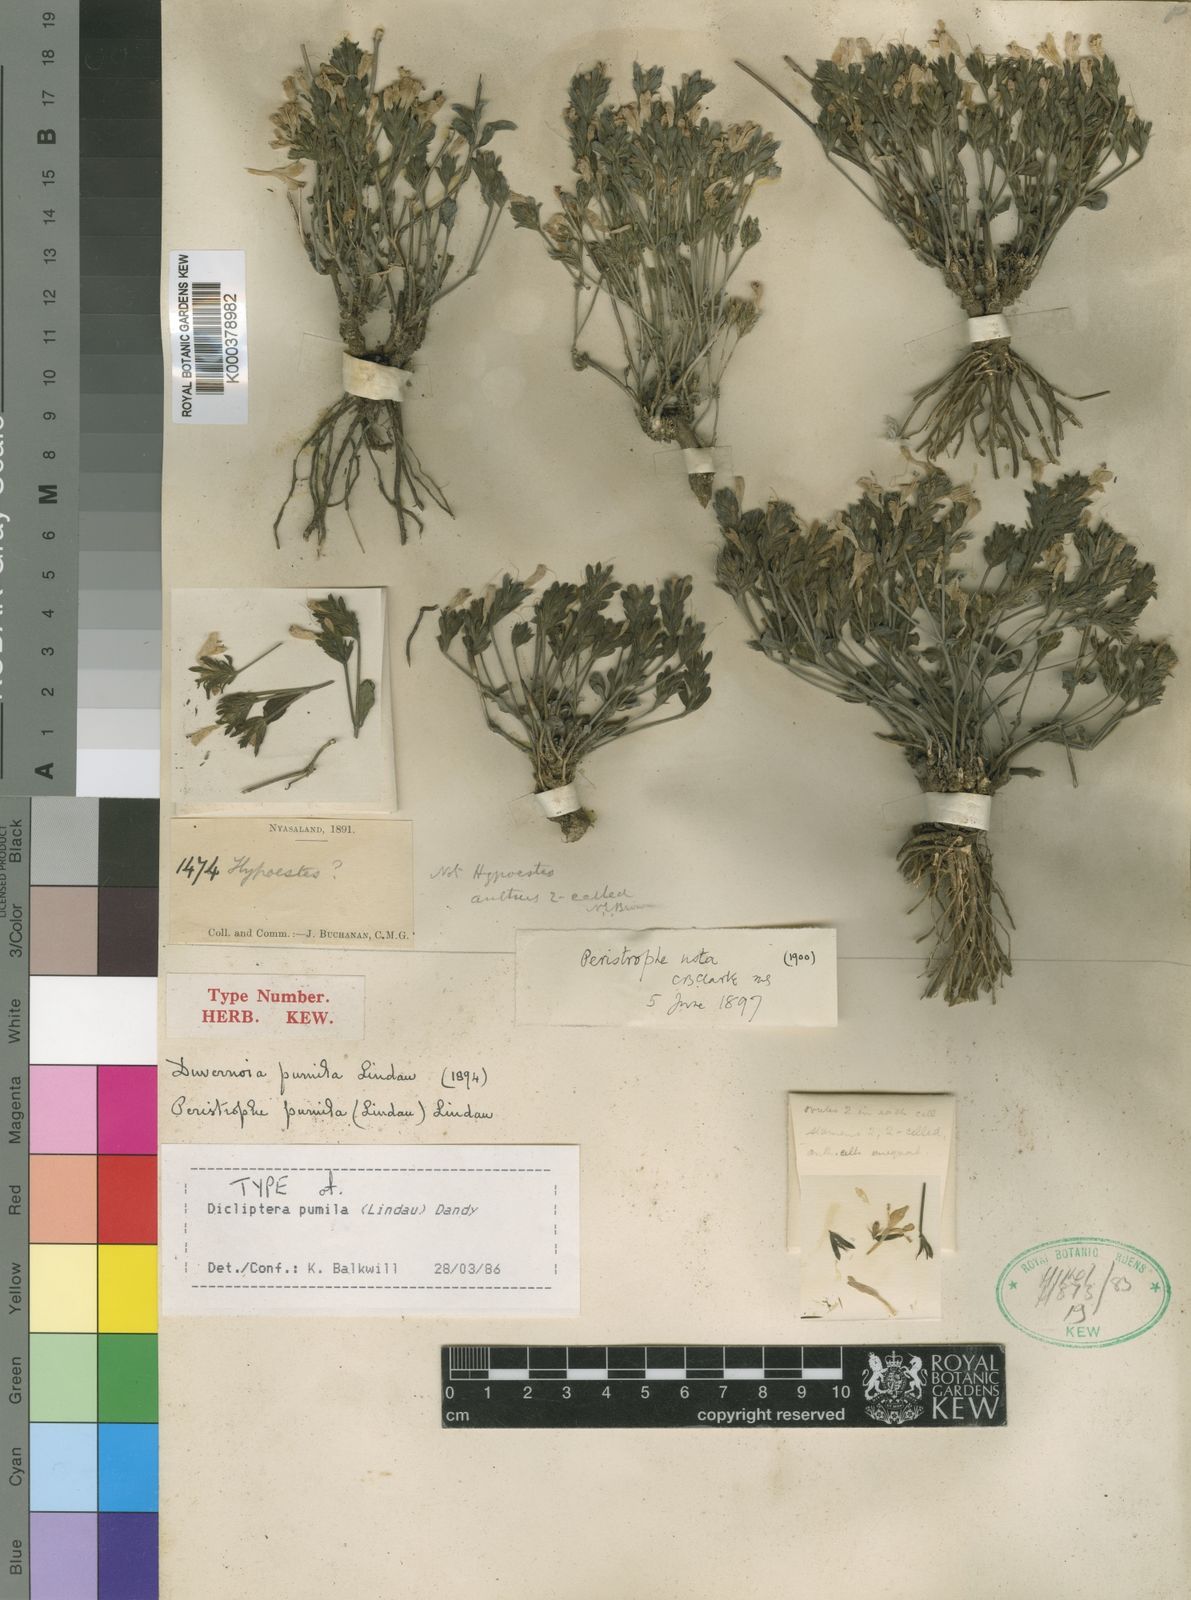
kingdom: Plantae
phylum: Tracheophyta
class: Magnoliopsida
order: Lamiales
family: Acanthaceae
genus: Dicliptera
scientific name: Dicliptera
